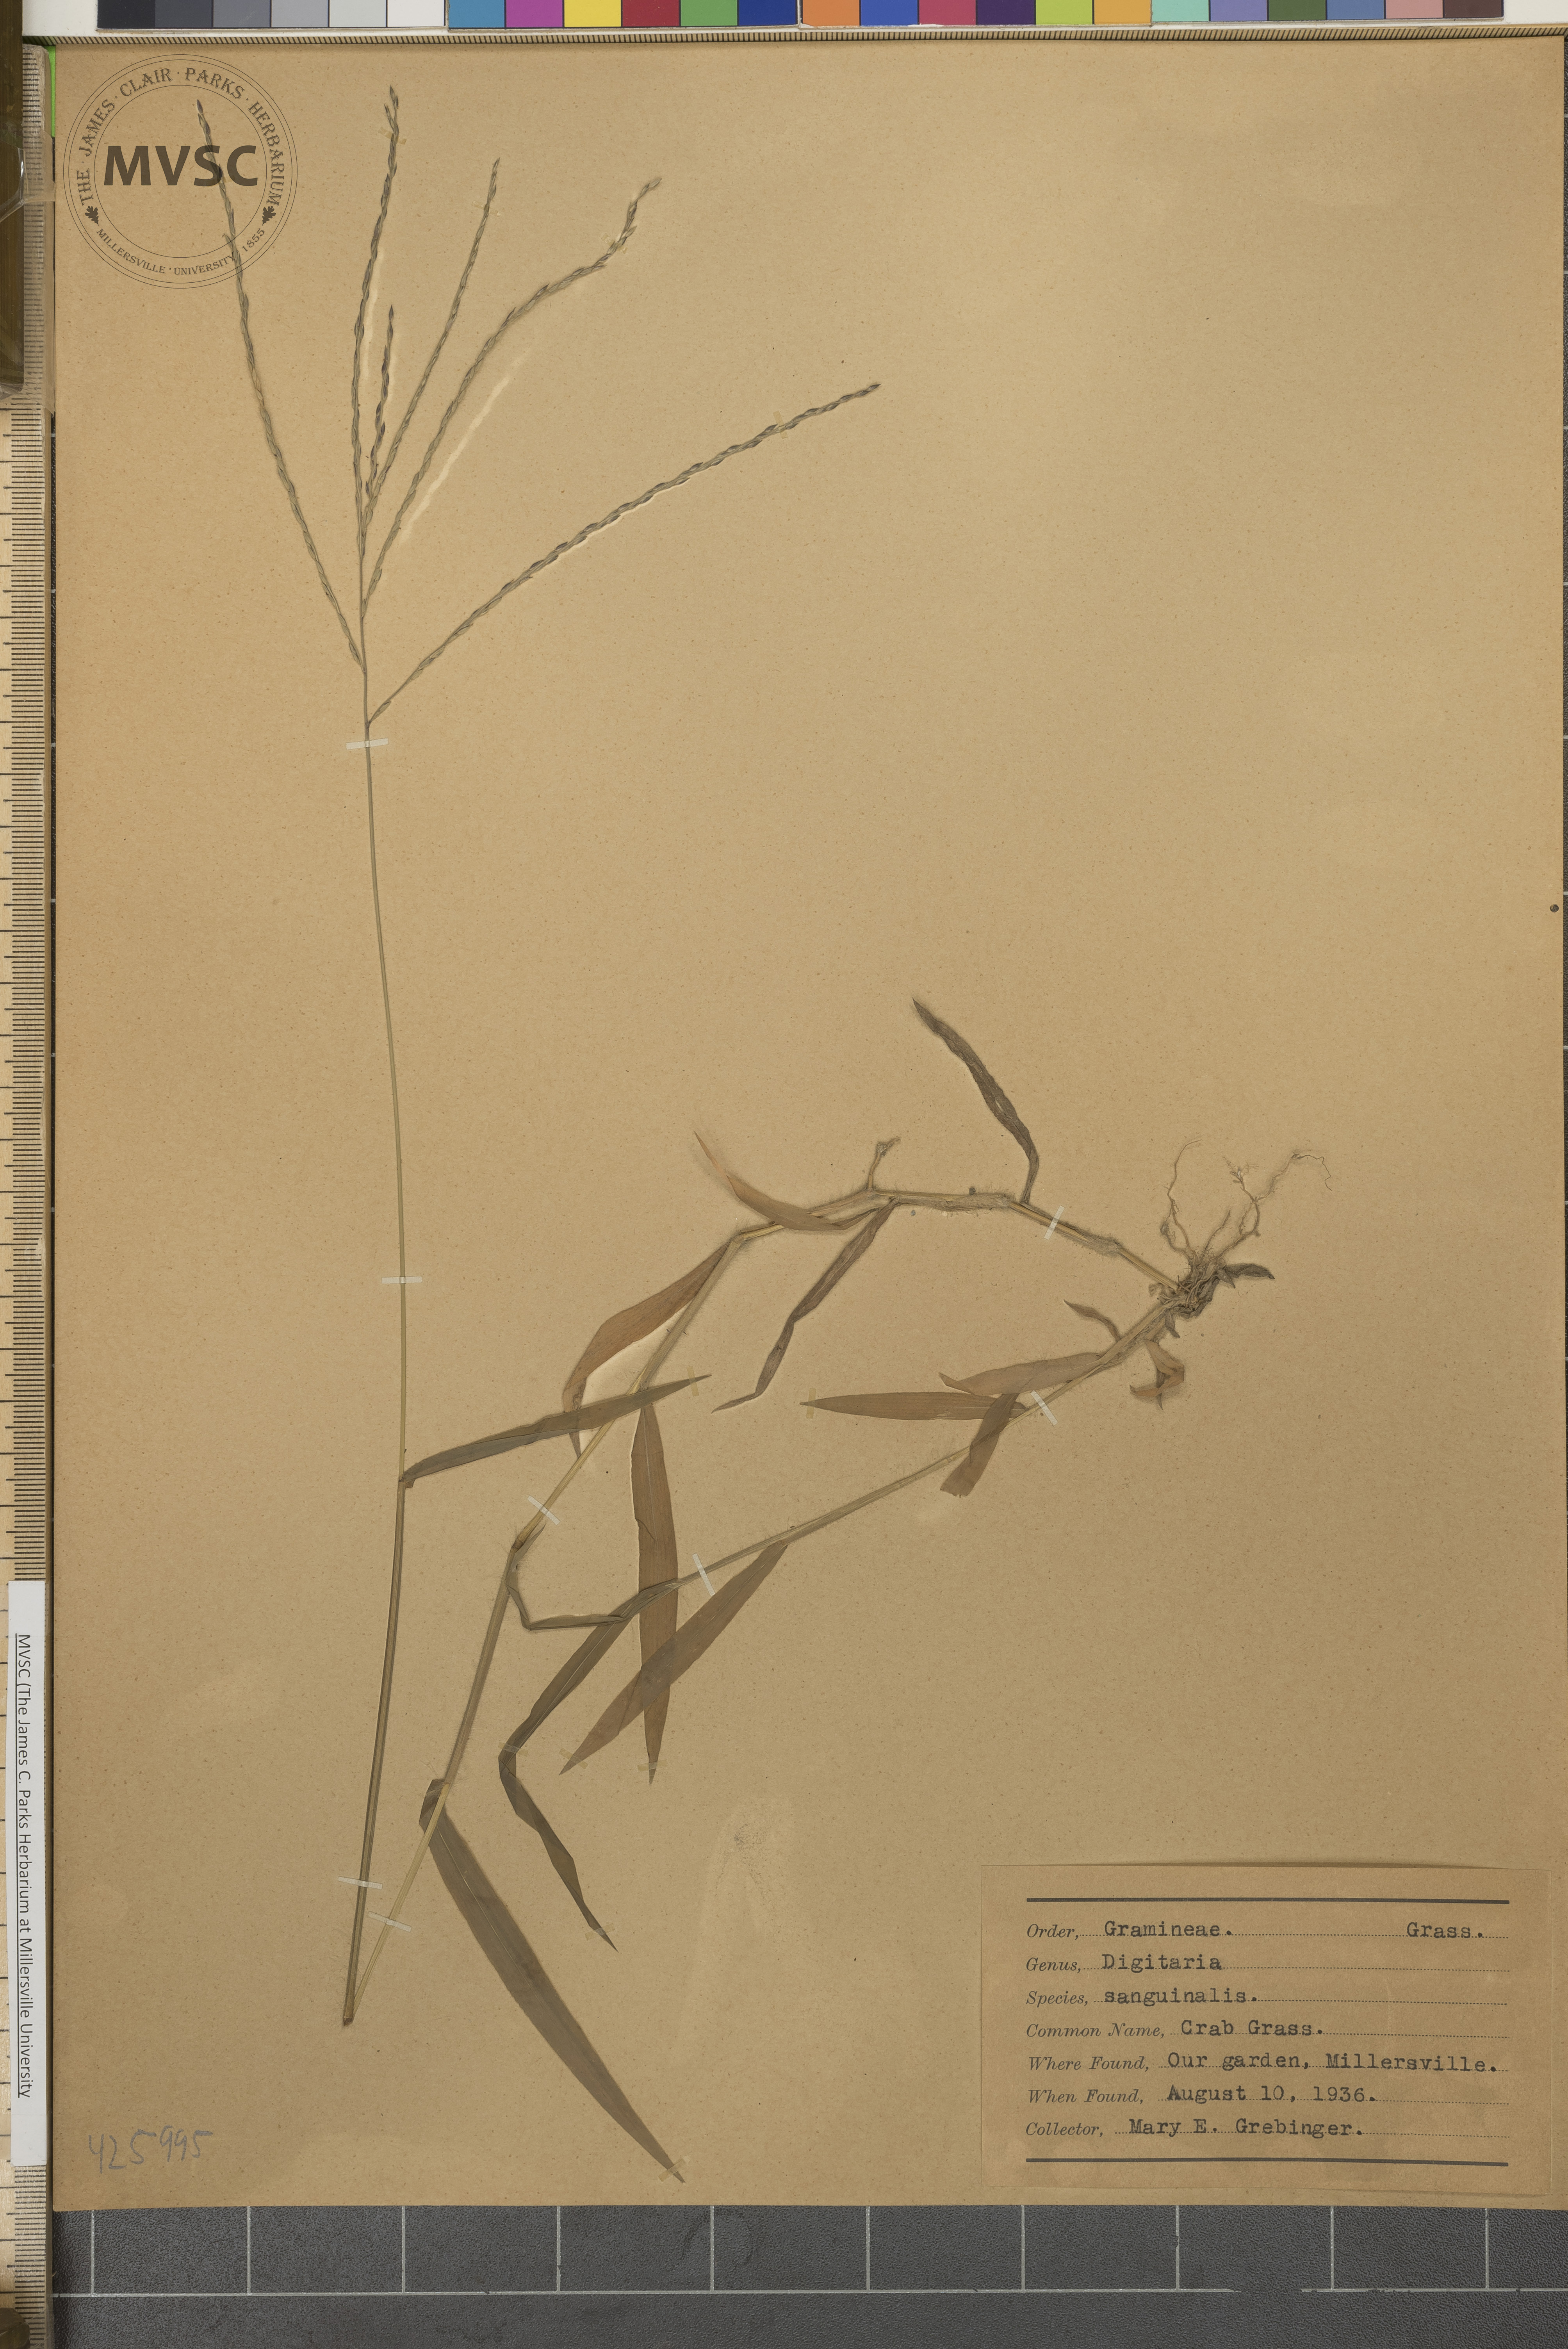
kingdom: Plantae
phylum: Tracheophyta
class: Liliopsida
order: Poales
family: Poaceae
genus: Digitaria
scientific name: Digitaria sanguinalis
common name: Crab grass
